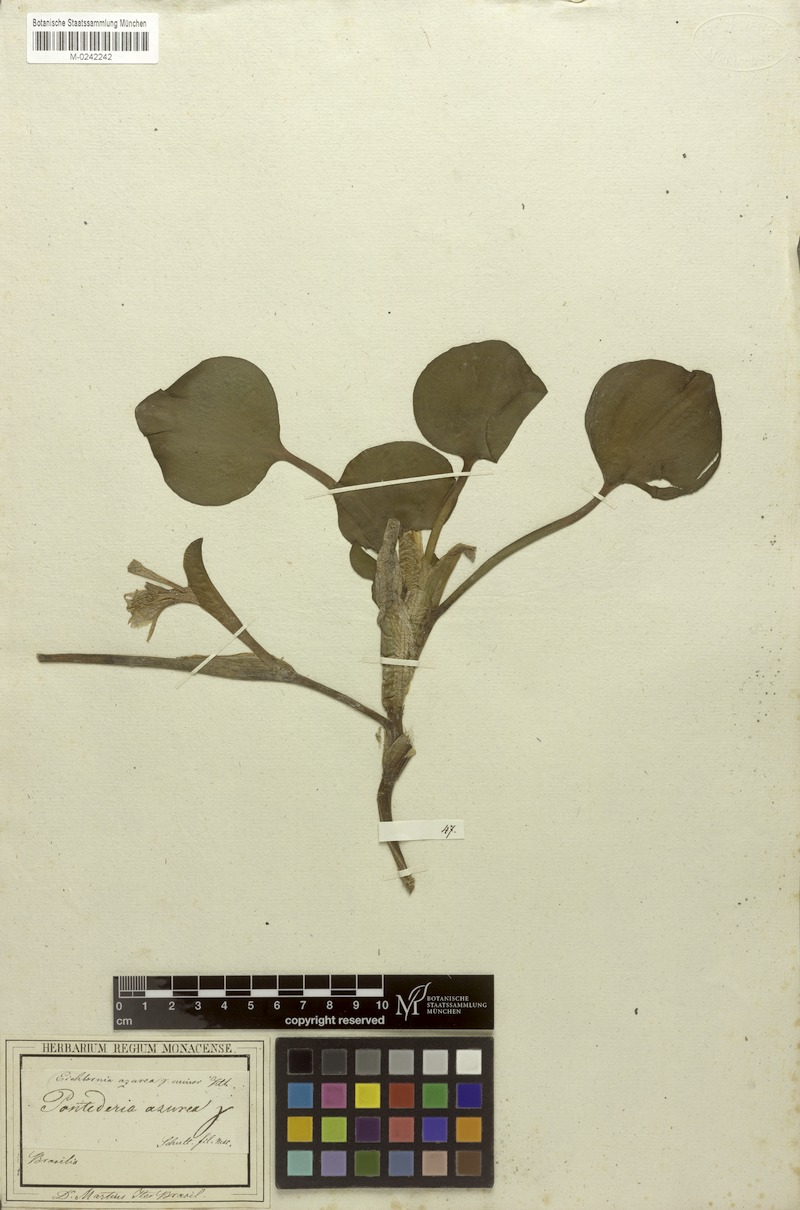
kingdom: Plantae
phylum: Tracheophyta
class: Liliopsida
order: Commelinales
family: Pontederiaceae
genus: Pontederia
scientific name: Pontederia azurea
